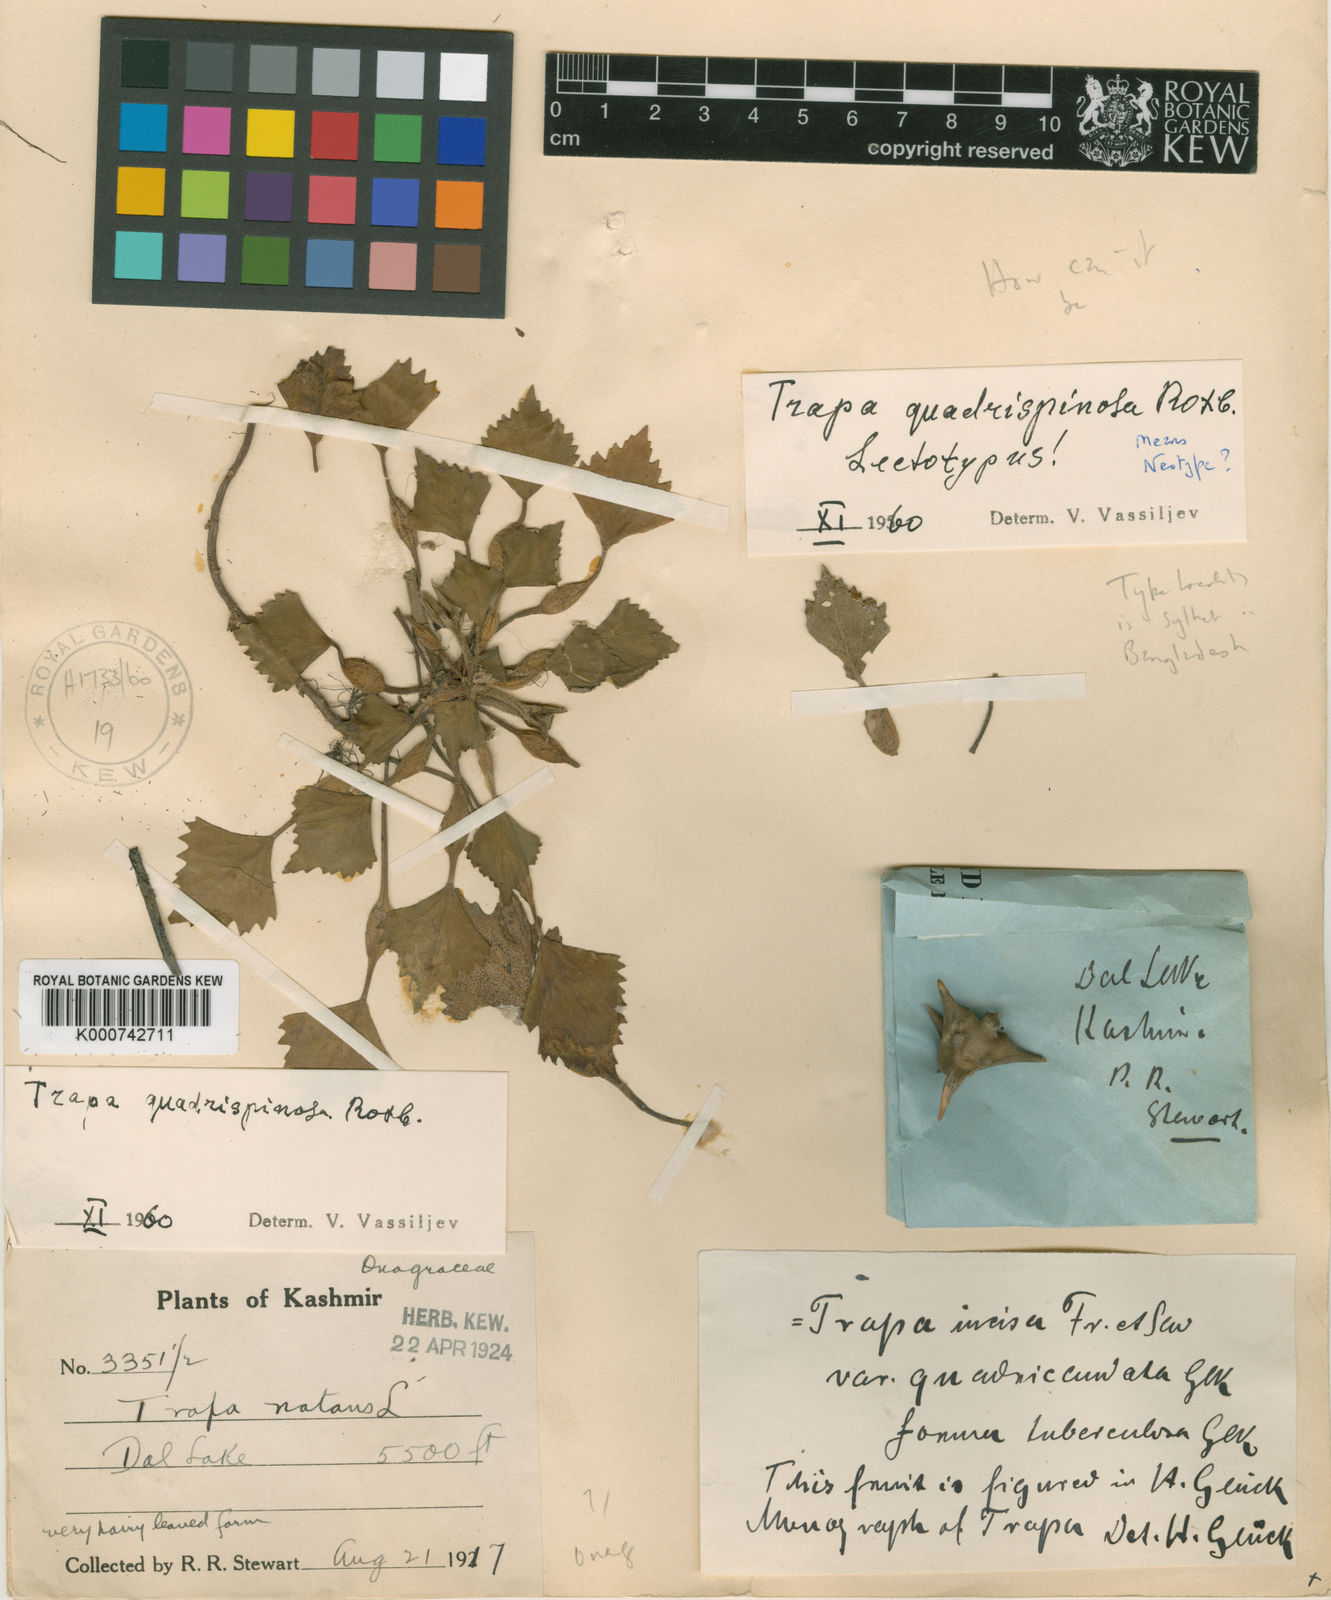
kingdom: Plantae
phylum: Tracheophyta
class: Magnoliopsida
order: Myrtales
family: Lythraceae
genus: Trapa
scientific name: Trapa natans
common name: Water chestnut
